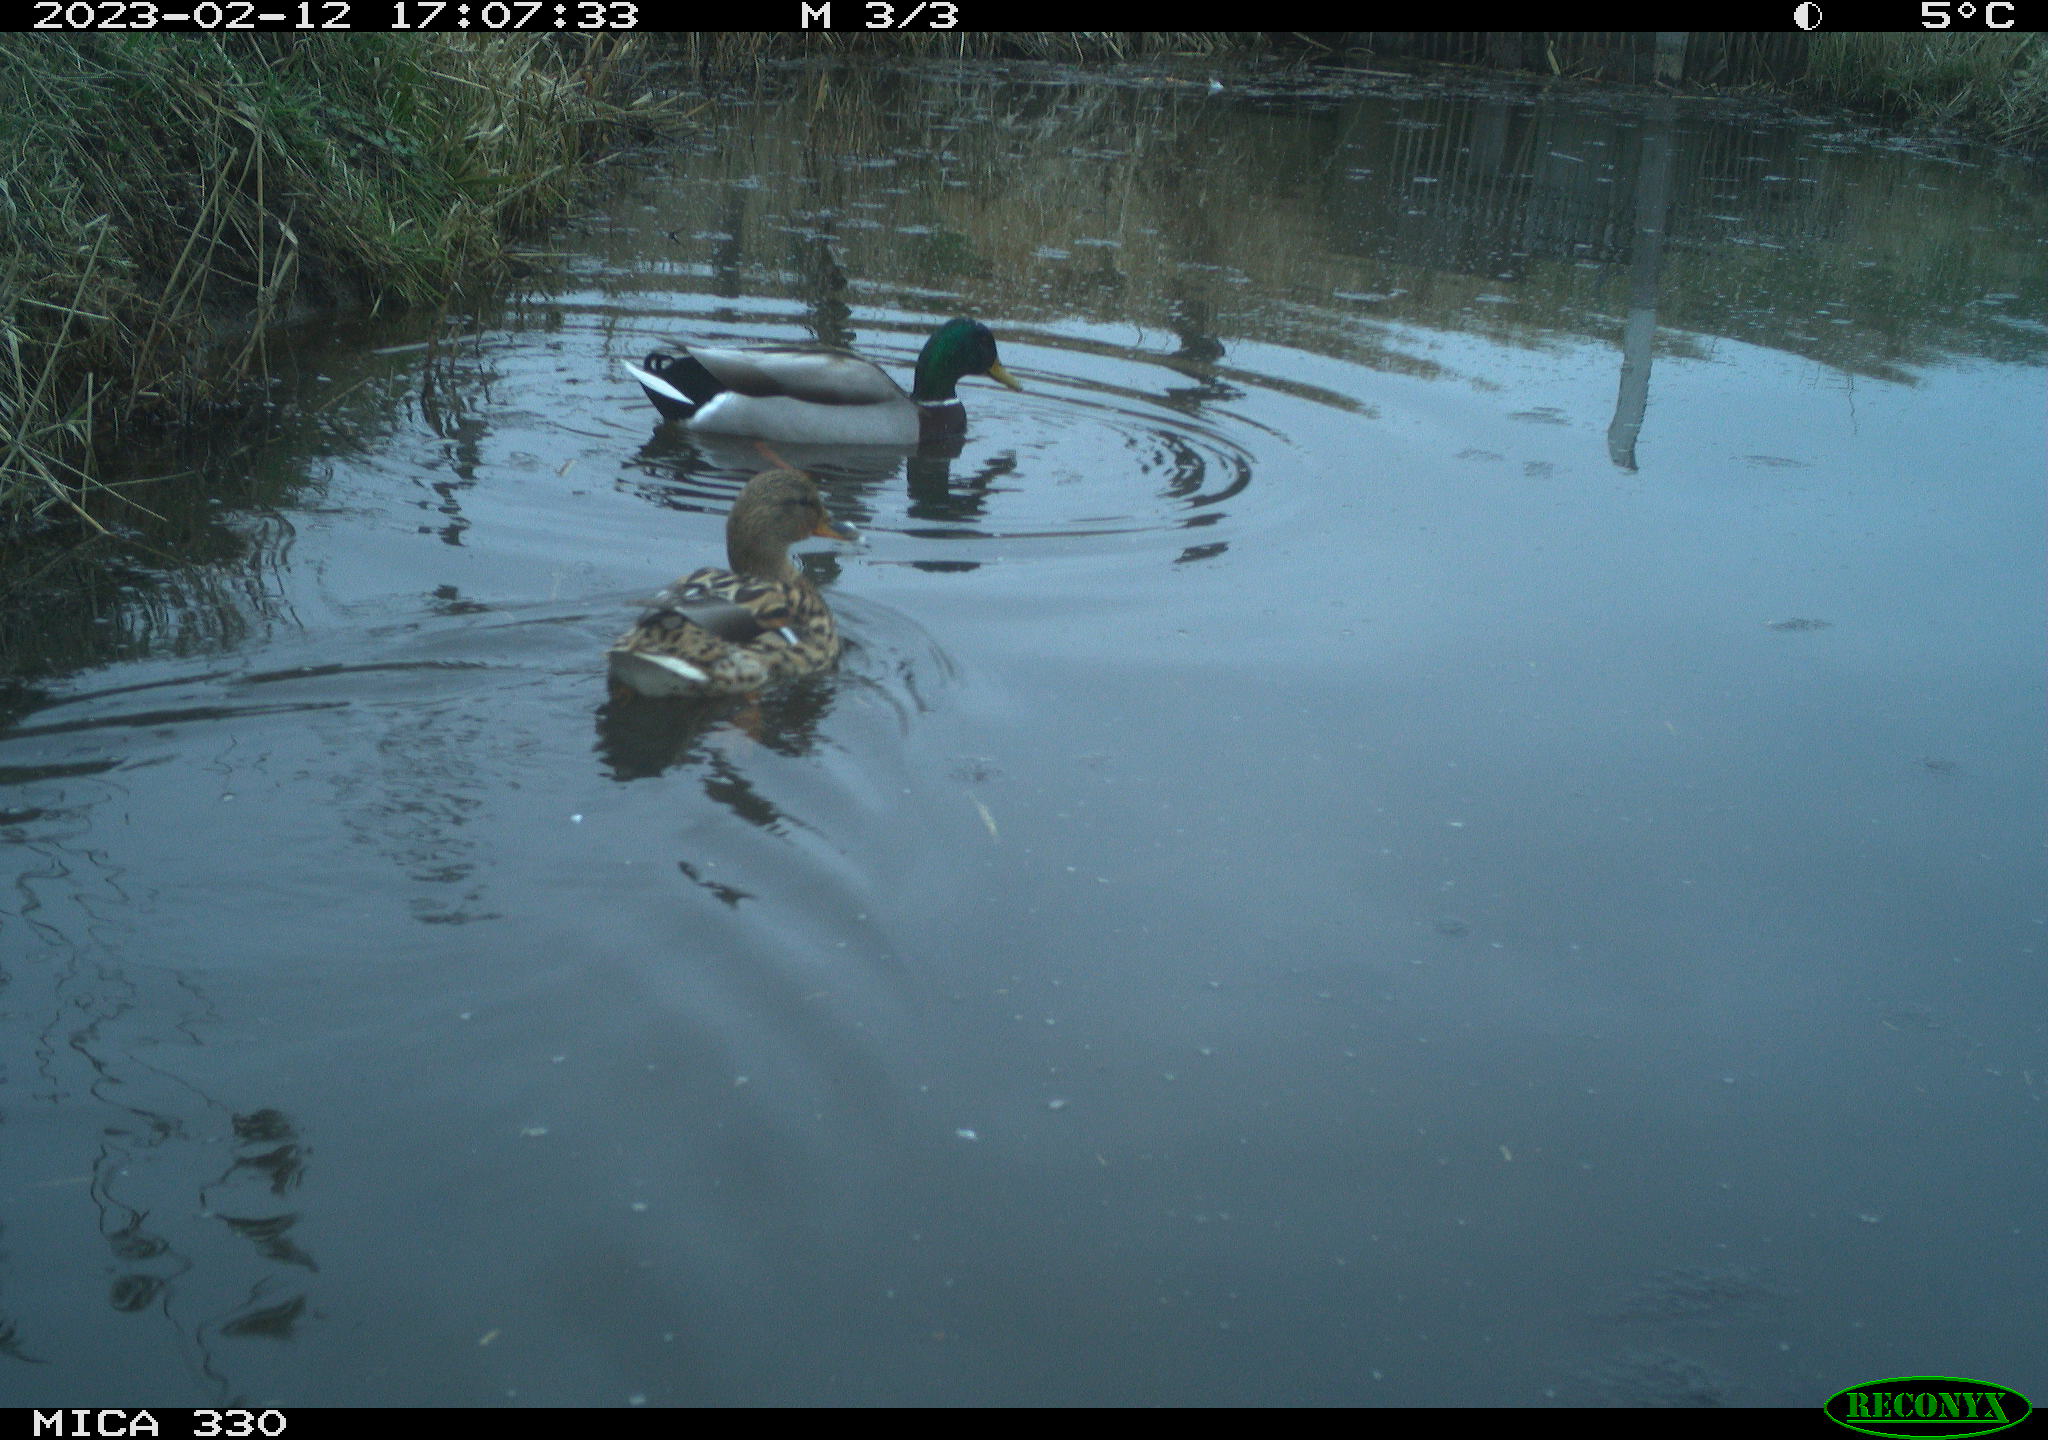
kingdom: Animalia
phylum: Chordata
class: Aves
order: Anseriformes
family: Anatidae
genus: Anas
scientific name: Anas
